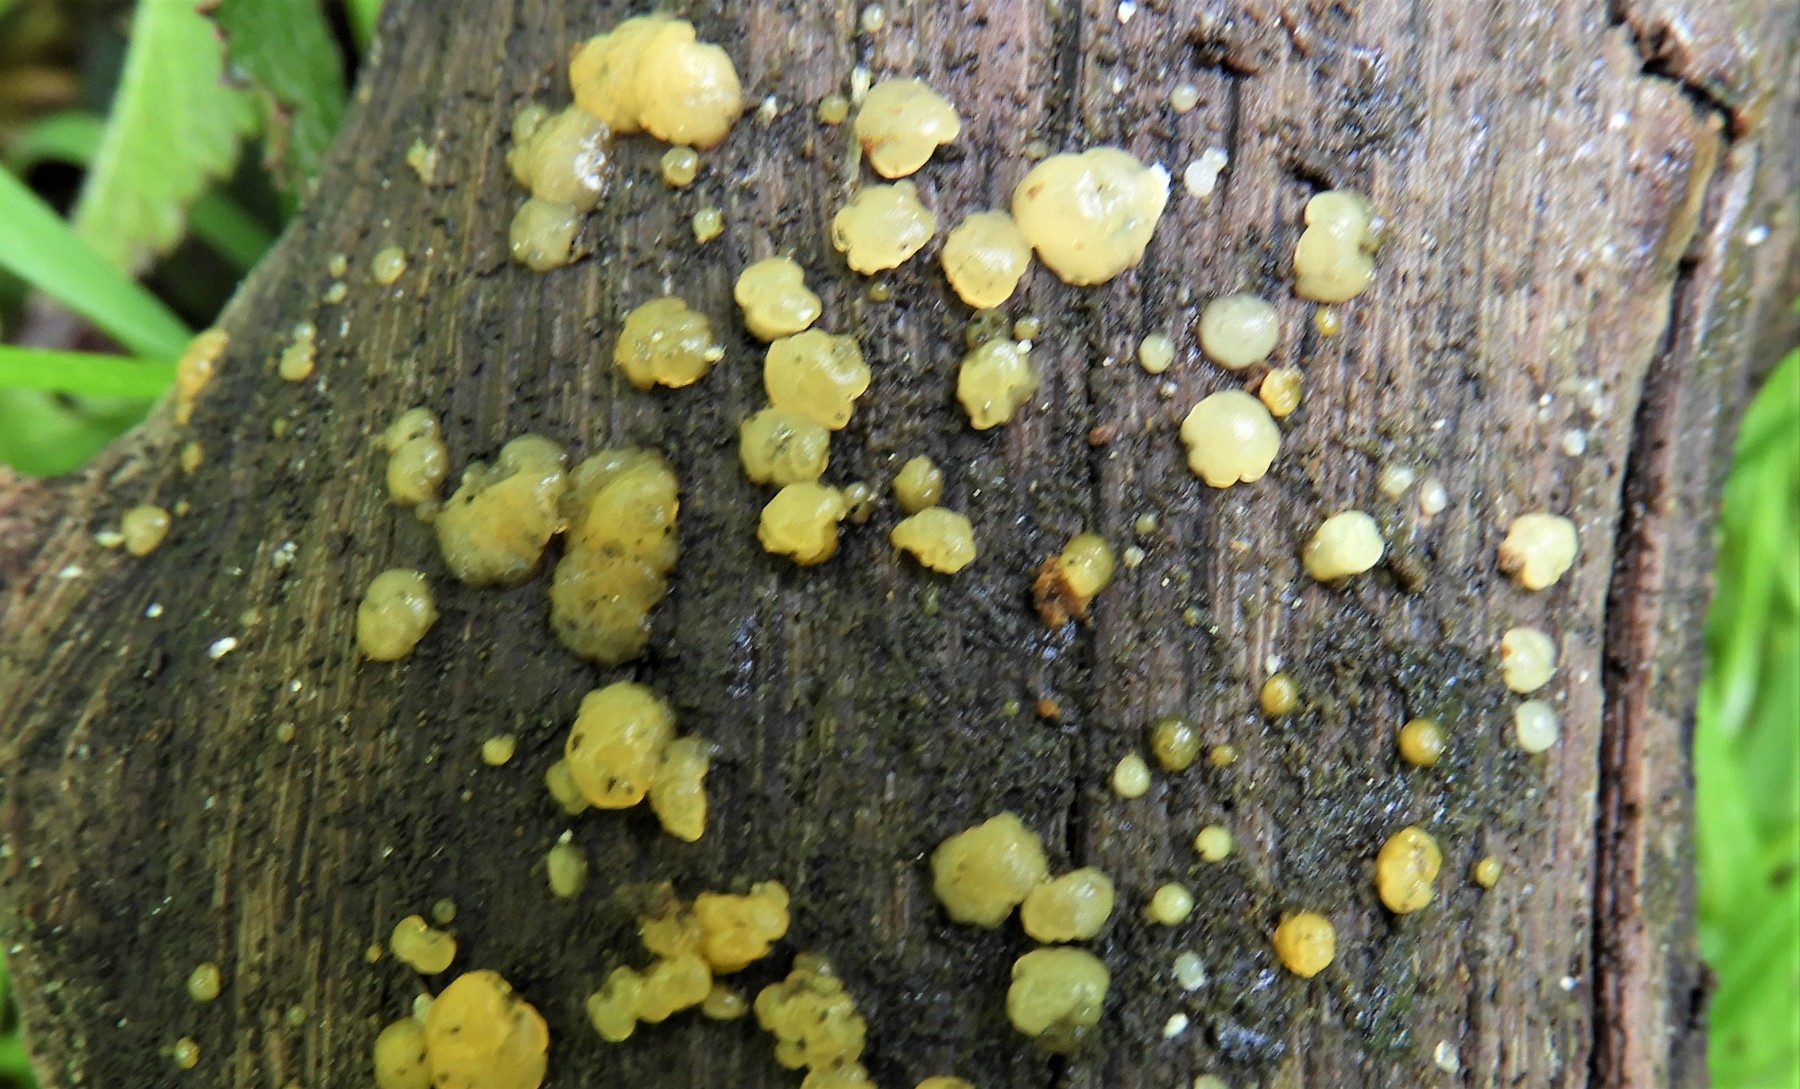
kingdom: Fungi
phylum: Basidiomycota
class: Dacrymycetes
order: Dacrymycetales
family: Dacrymycetaceae
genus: Dacrymyces
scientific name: Dacrymyces lacrymalis
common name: rynket tåresvamp
